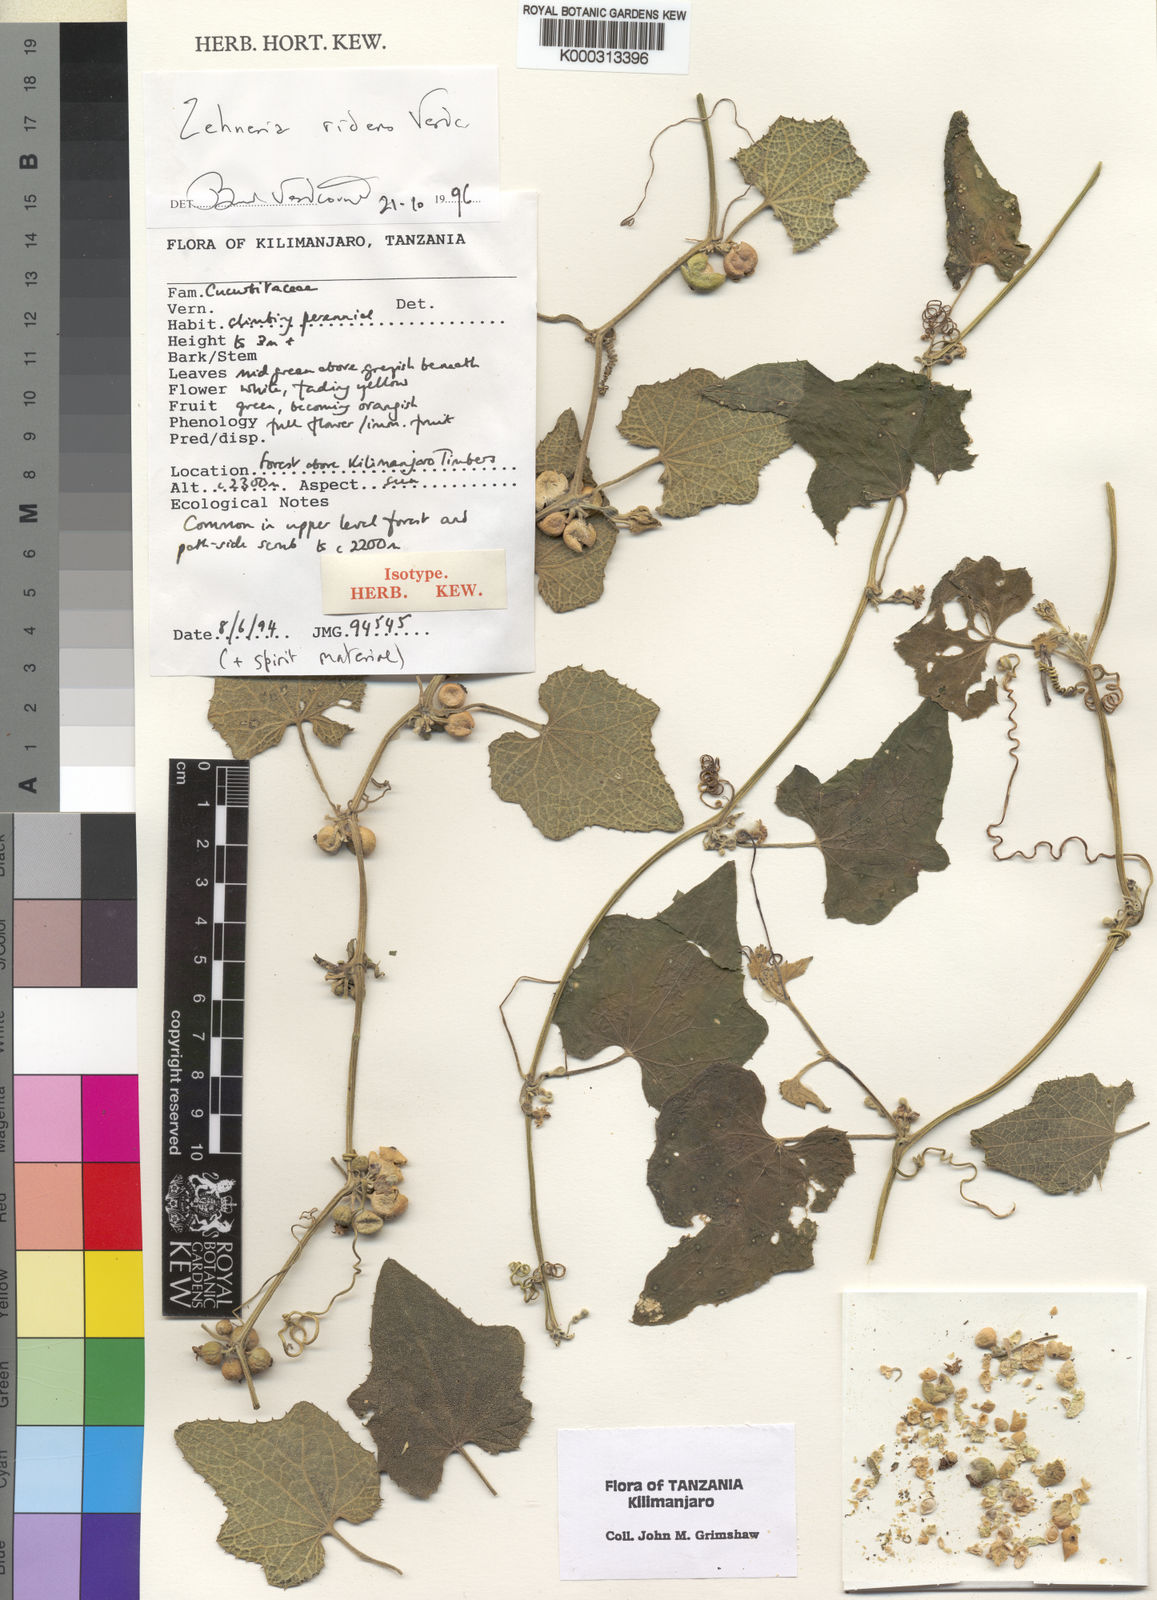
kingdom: Plantae
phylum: Tracheophyta
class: Magnoliopsida
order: Cucurbitales
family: Cucurbitaceae
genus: Zehneria
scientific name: Zehneria ridens
